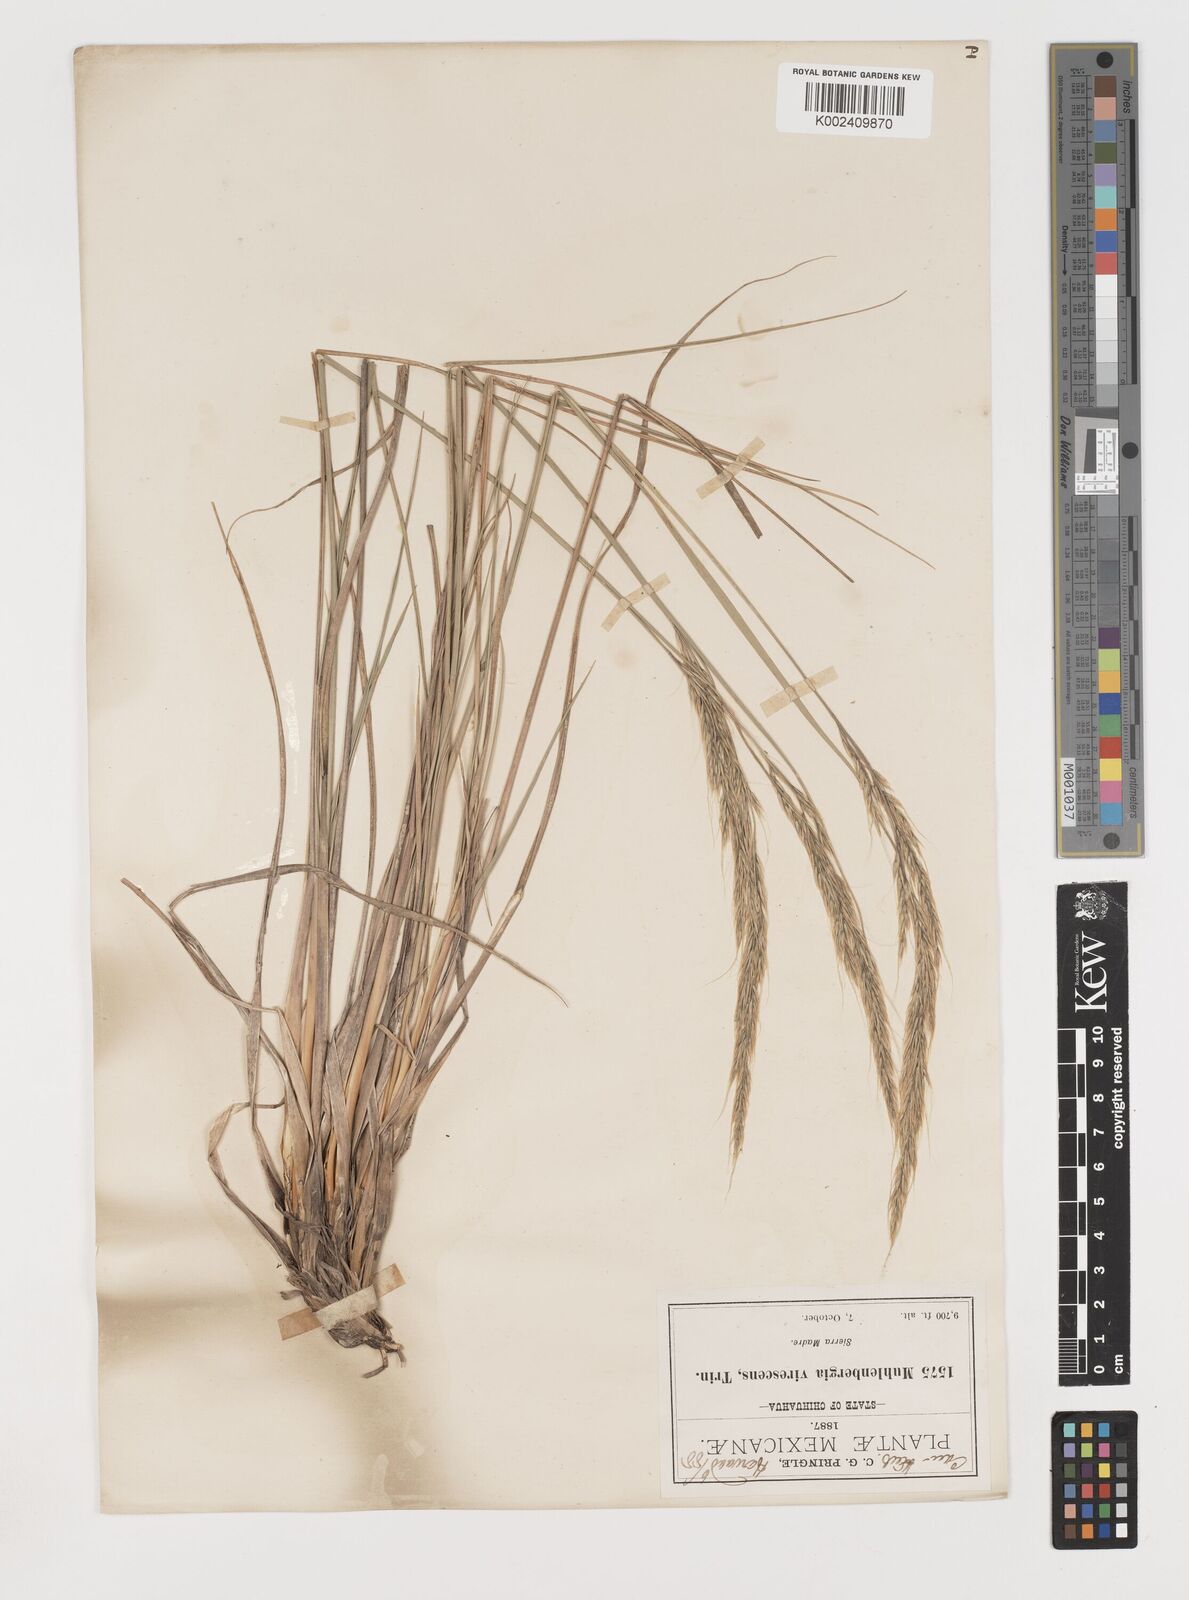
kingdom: Plantae
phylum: Tracheophyta
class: Liliopsida
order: Poales
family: Poaceae
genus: Muhlenbergia
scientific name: Muhlenbergia virescens
